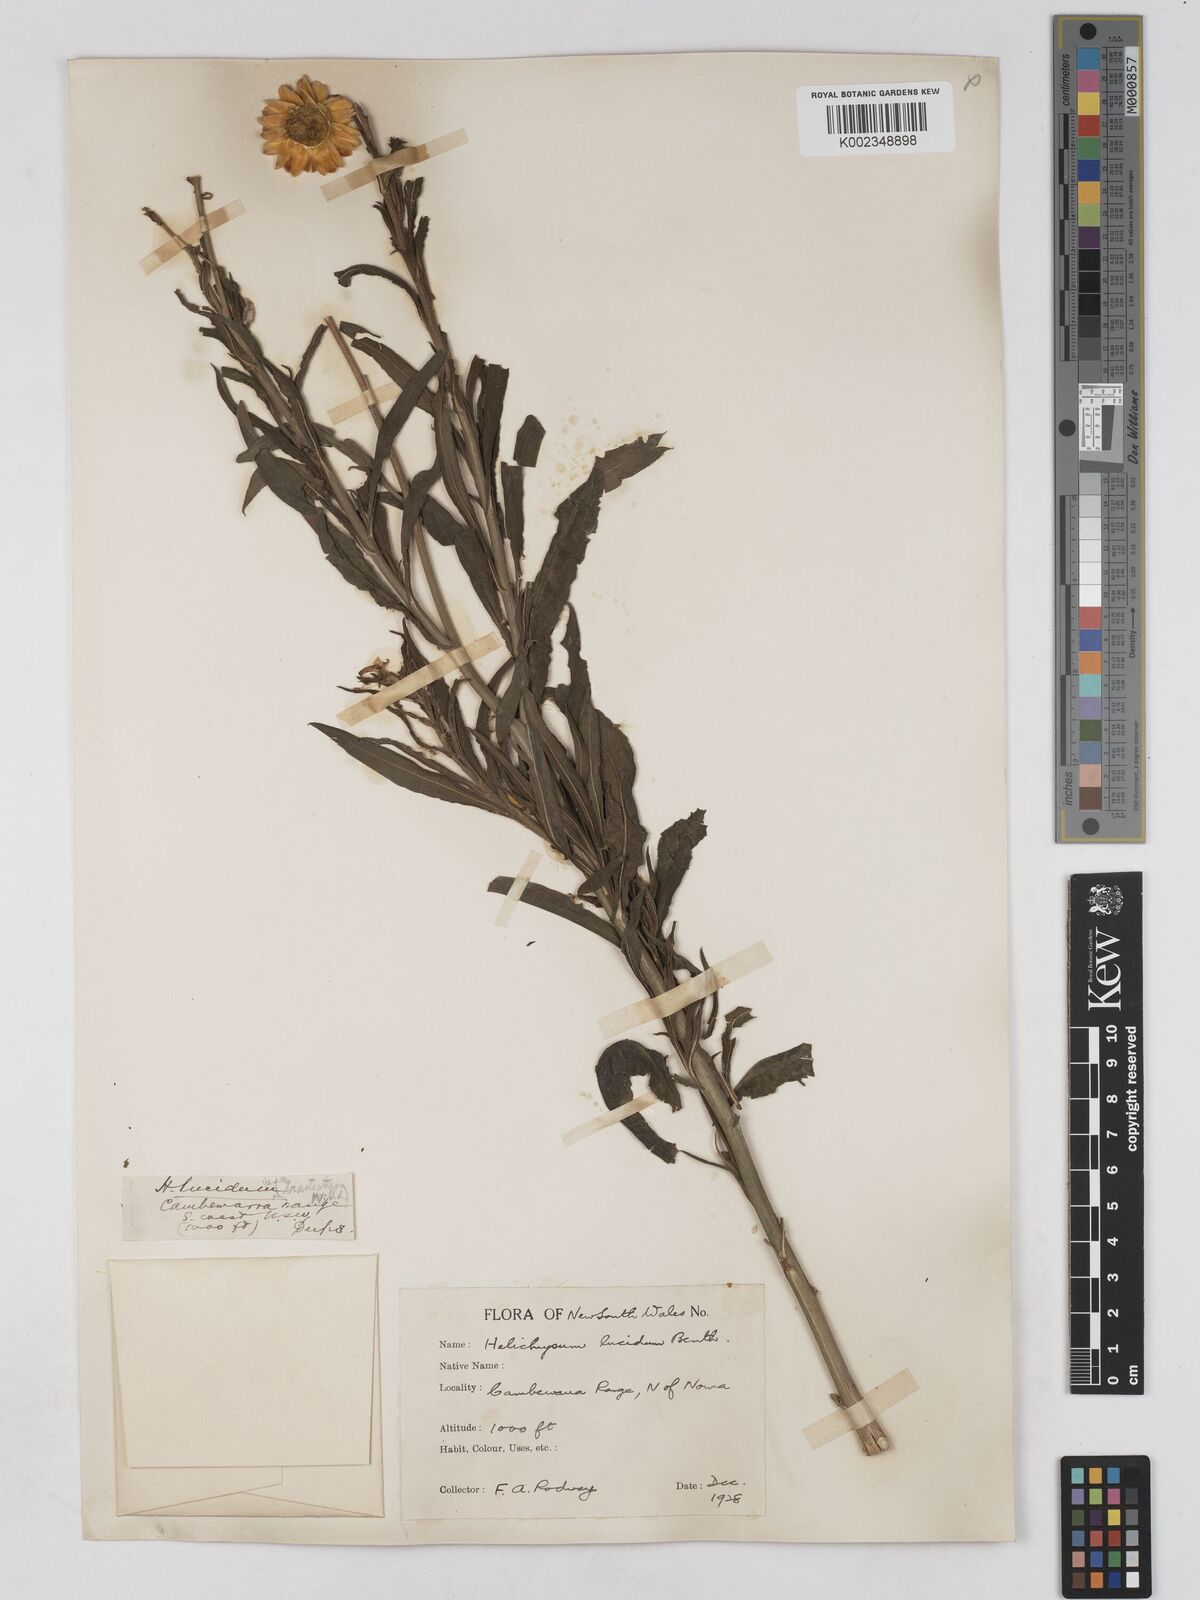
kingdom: Plantae
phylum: Tracheophyta
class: Magnoliopsida
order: Asterales
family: Asteraceae
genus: Xerochrysum
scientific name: Xerochrysum bracteatum
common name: Bracted strawflower
